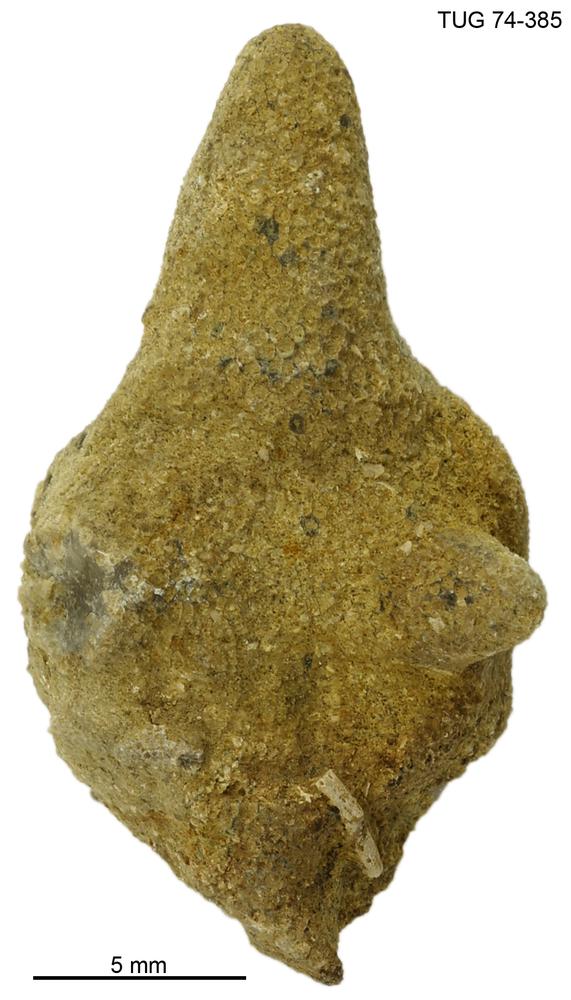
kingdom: Animalia
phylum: Bryozoa
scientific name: Bryozoa
